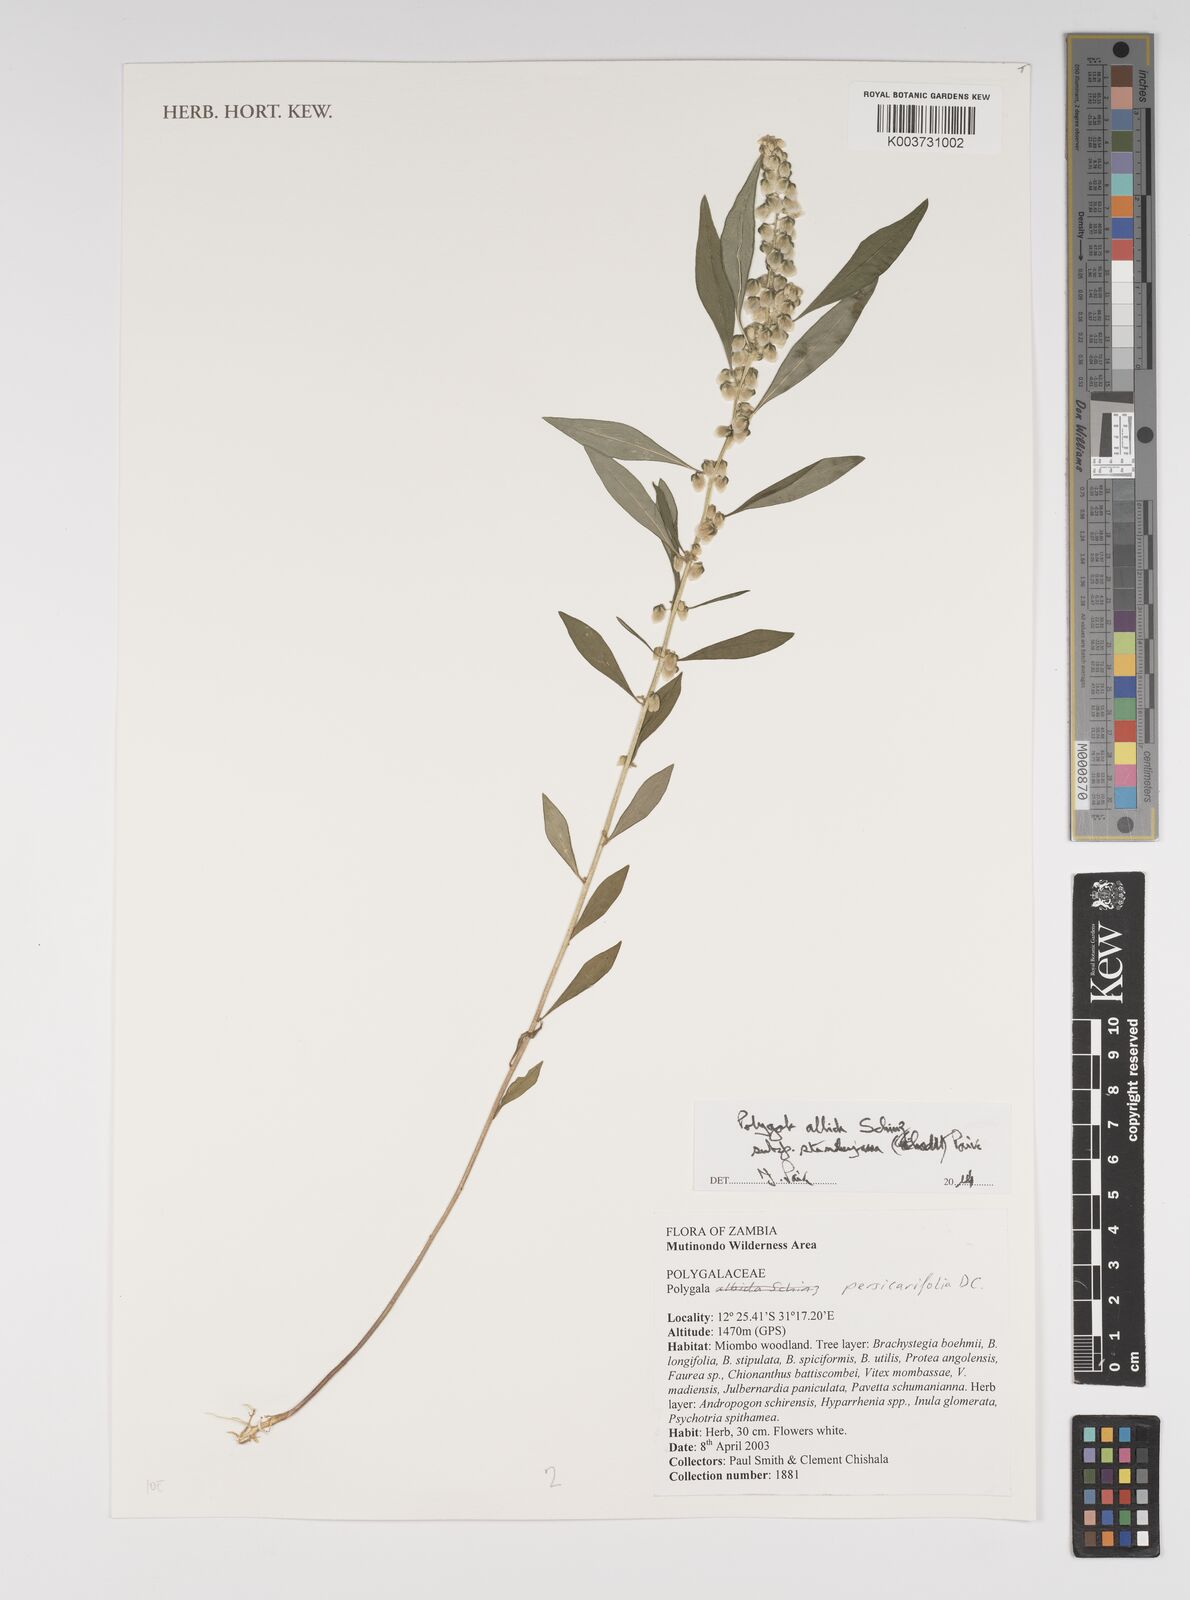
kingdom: Plantae
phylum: Tracheophyta
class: Magnoliopsida
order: Fabales
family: Polygalaceae
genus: Polygala
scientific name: Polygala albida
